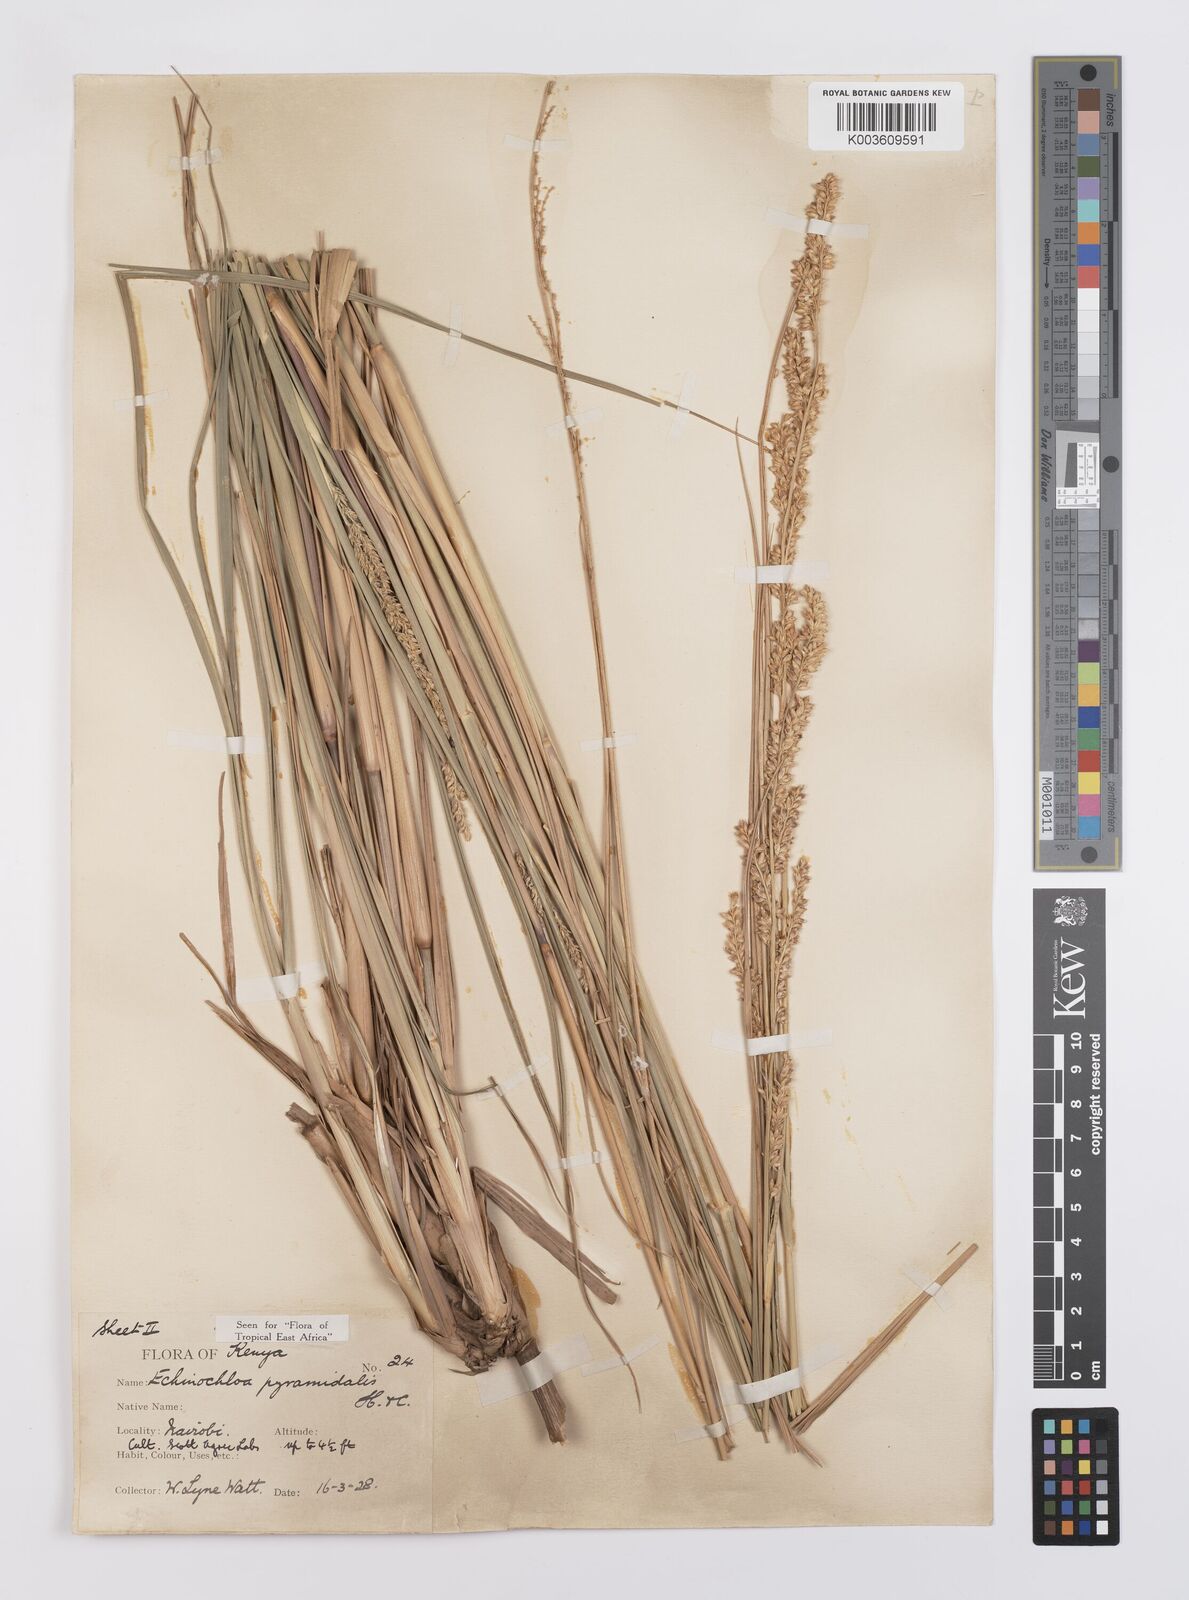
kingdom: Plantae
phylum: Tracheophyta
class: Liliopsida
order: Poales
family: Poaceae
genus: Echinochloa
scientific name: Echinochloa pyramidalis
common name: Antelope grass
